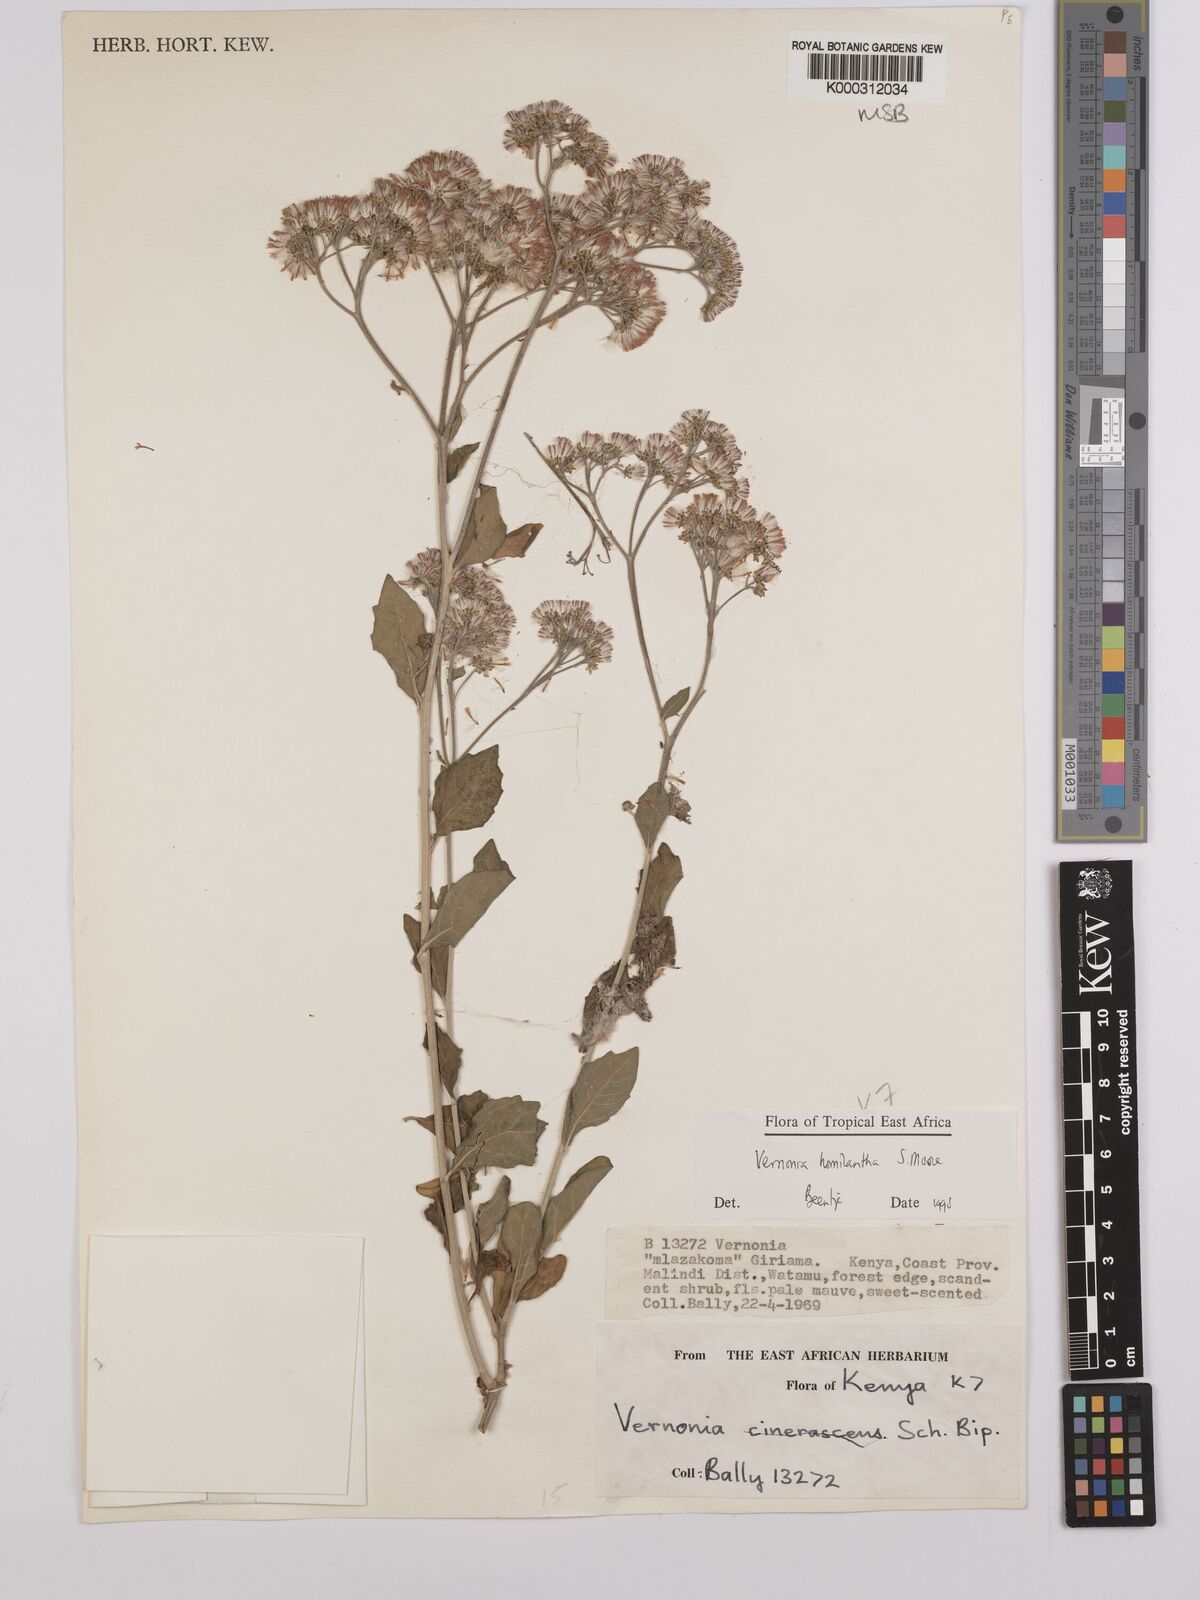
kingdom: Plantae
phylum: Tracheophyta
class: Magnoliopsida
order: Asterales
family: Asteraceae
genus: Orbivestus
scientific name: Orbivestus homilanthus
